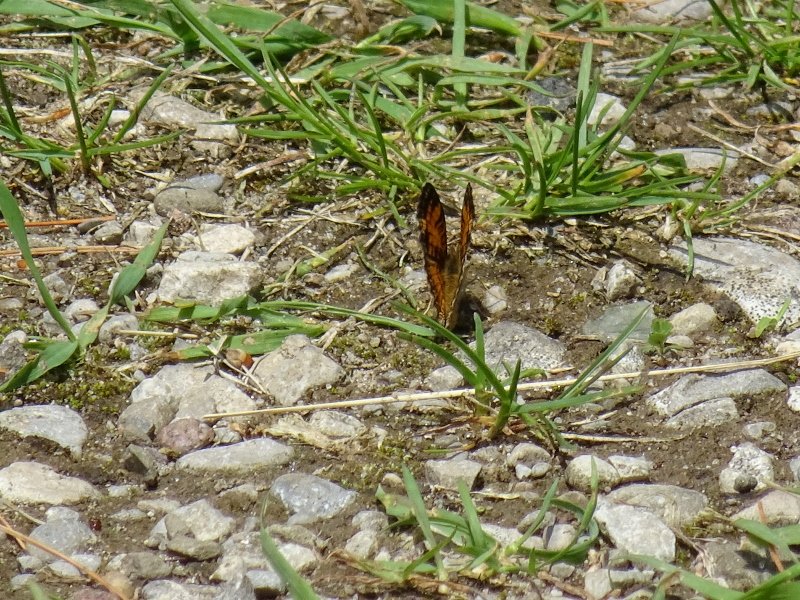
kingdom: Animalia
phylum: Arthropoda
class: Insecta
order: Lepidoptera
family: Nymphalidae
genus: Phyciodes
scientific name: Phyciodes
